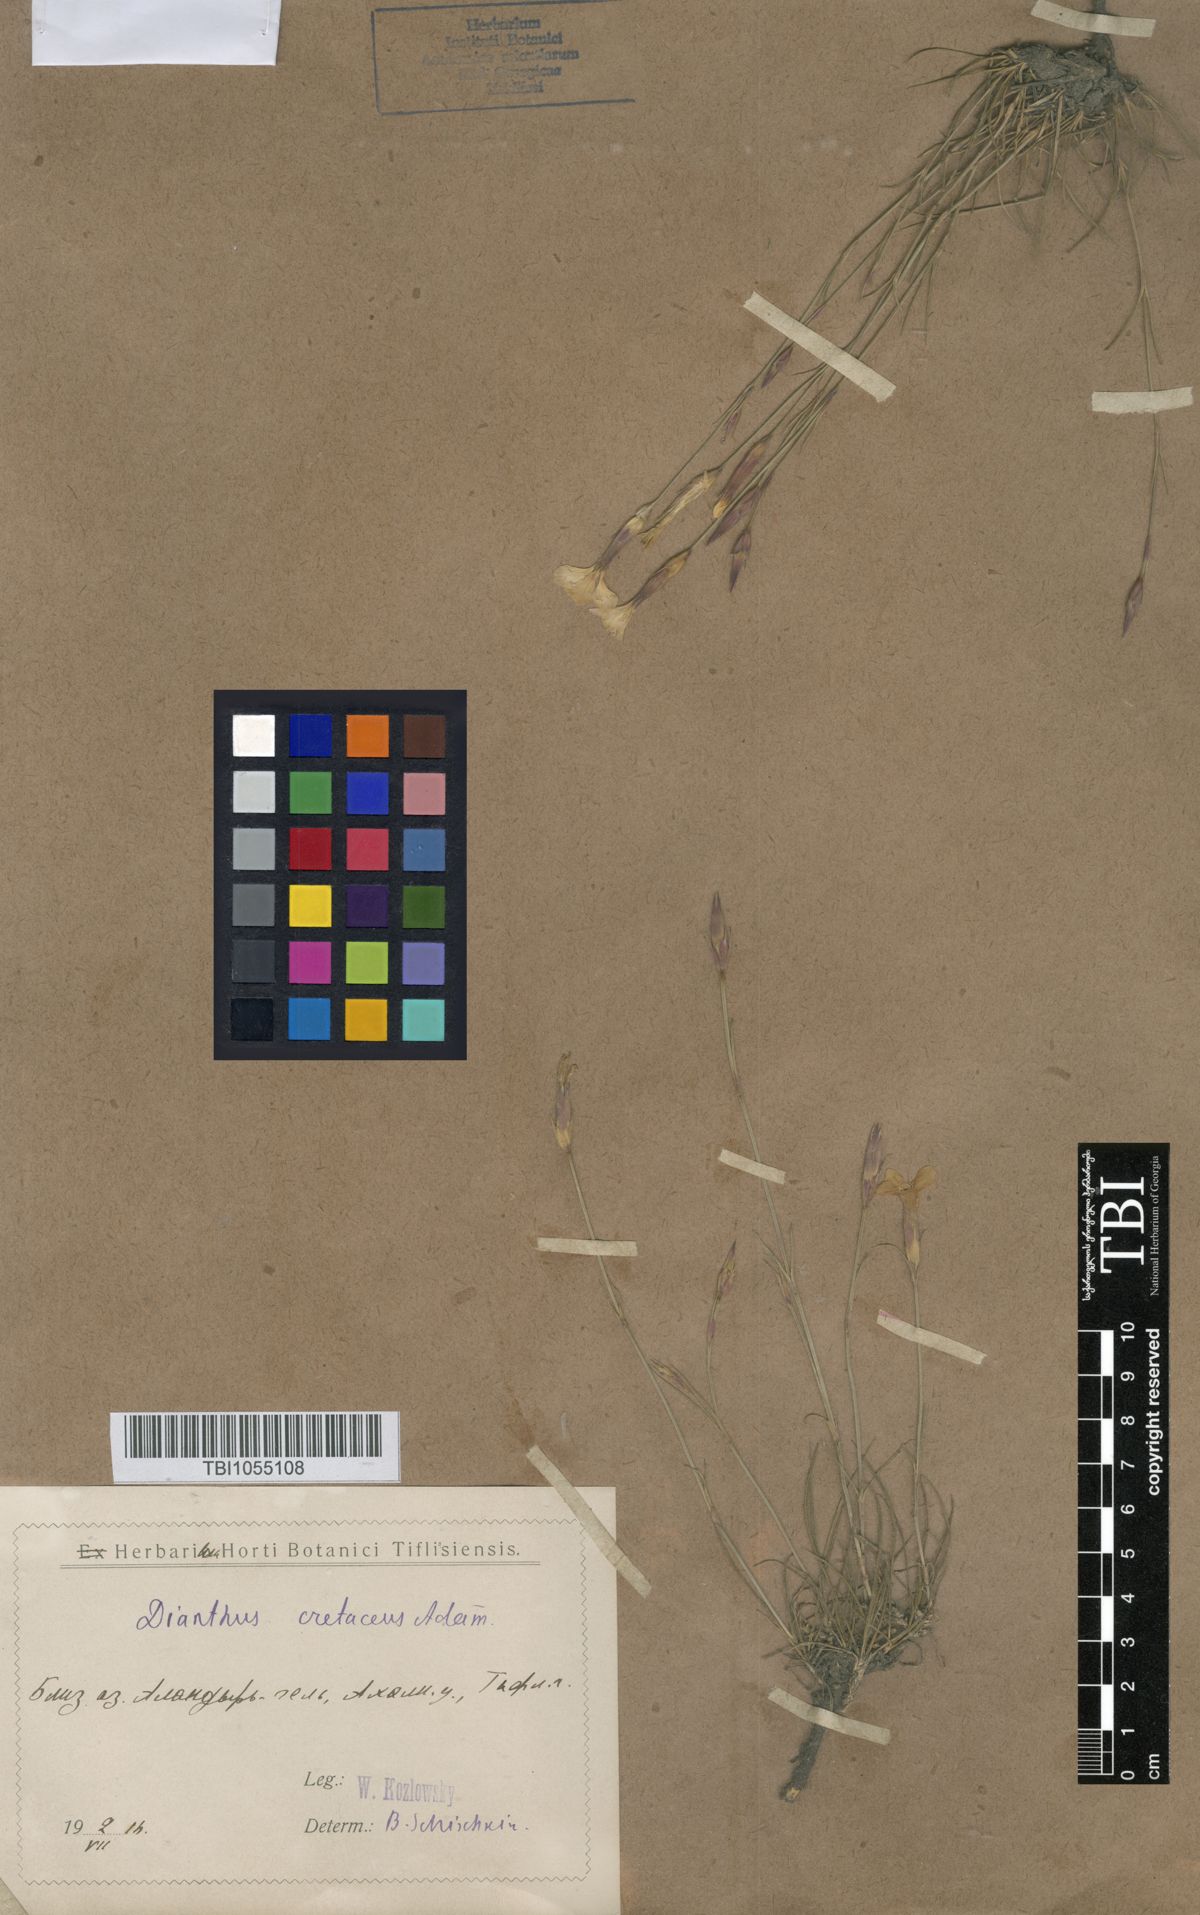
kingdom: Plantae
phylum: Tracheophyta
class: Magnoliopsida
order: Caryophyllales
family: Caryophyllaceae
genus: Dianthus
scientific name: Dianthus cretaceus
